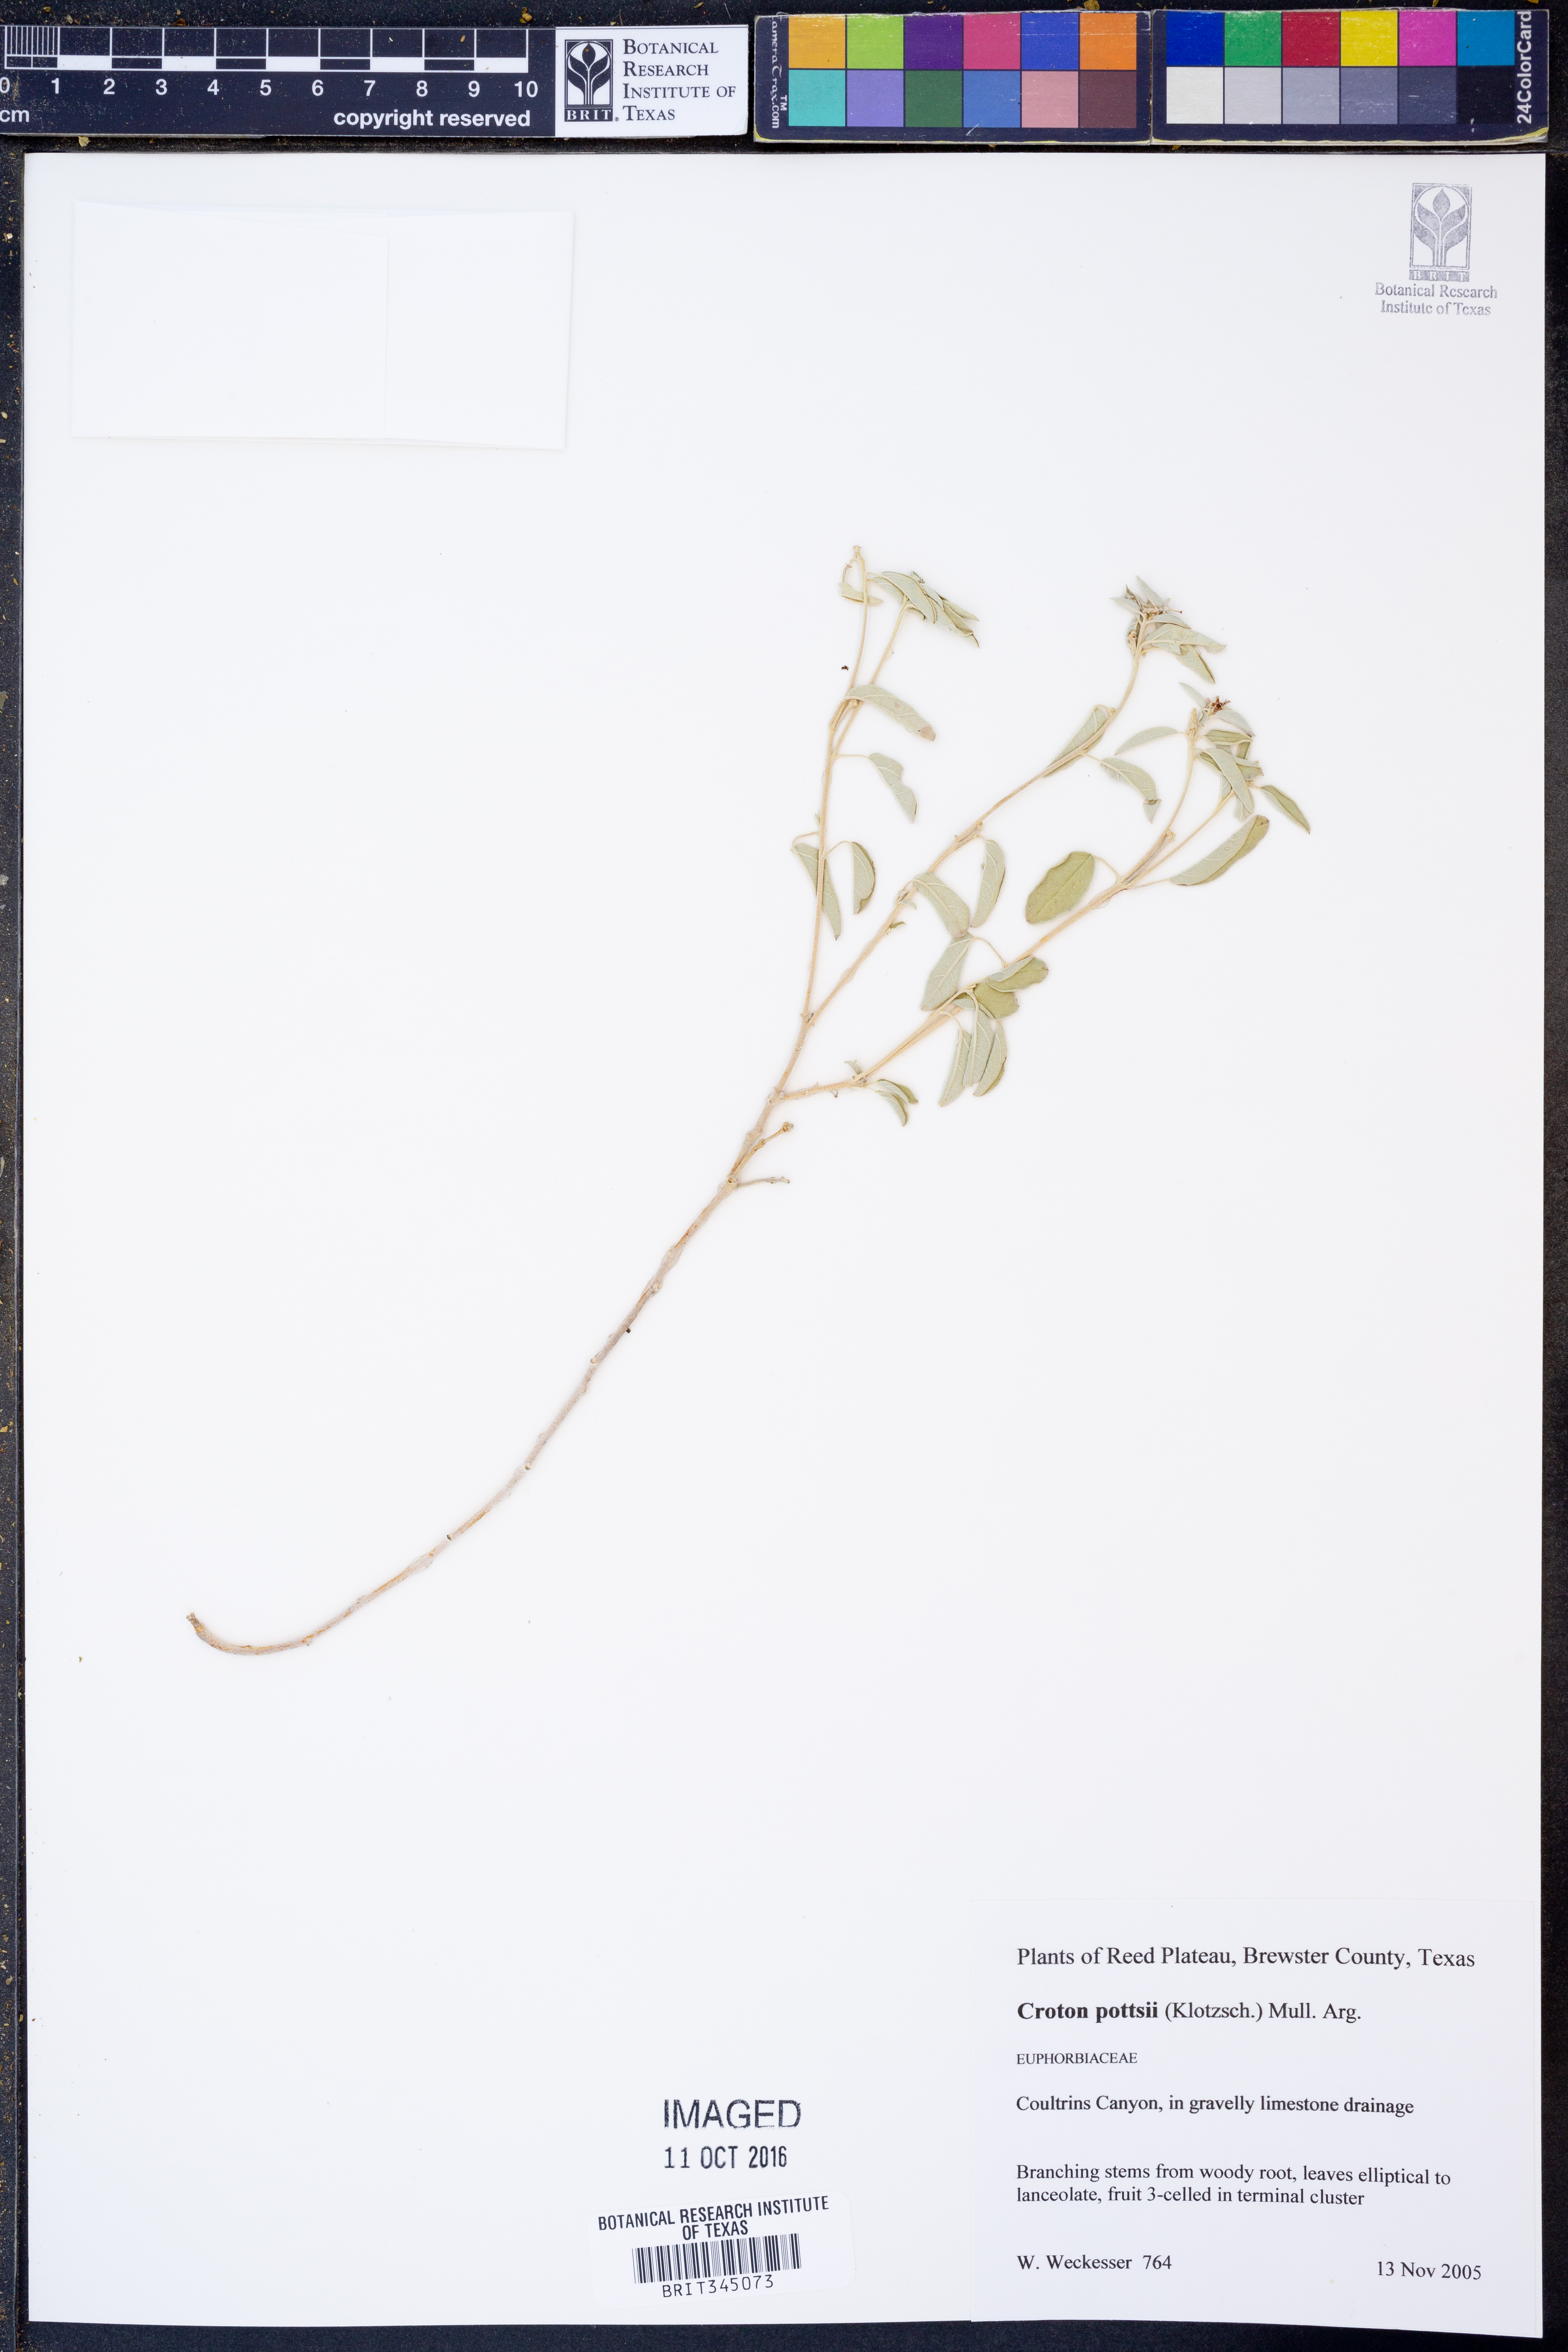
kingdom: Plantae
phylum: Tracheophyta
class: Magnoliopsida
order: Malpighiales
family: Euphorbiaceae
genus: Croton
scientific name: Croton pottsii
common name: Leatherweed
